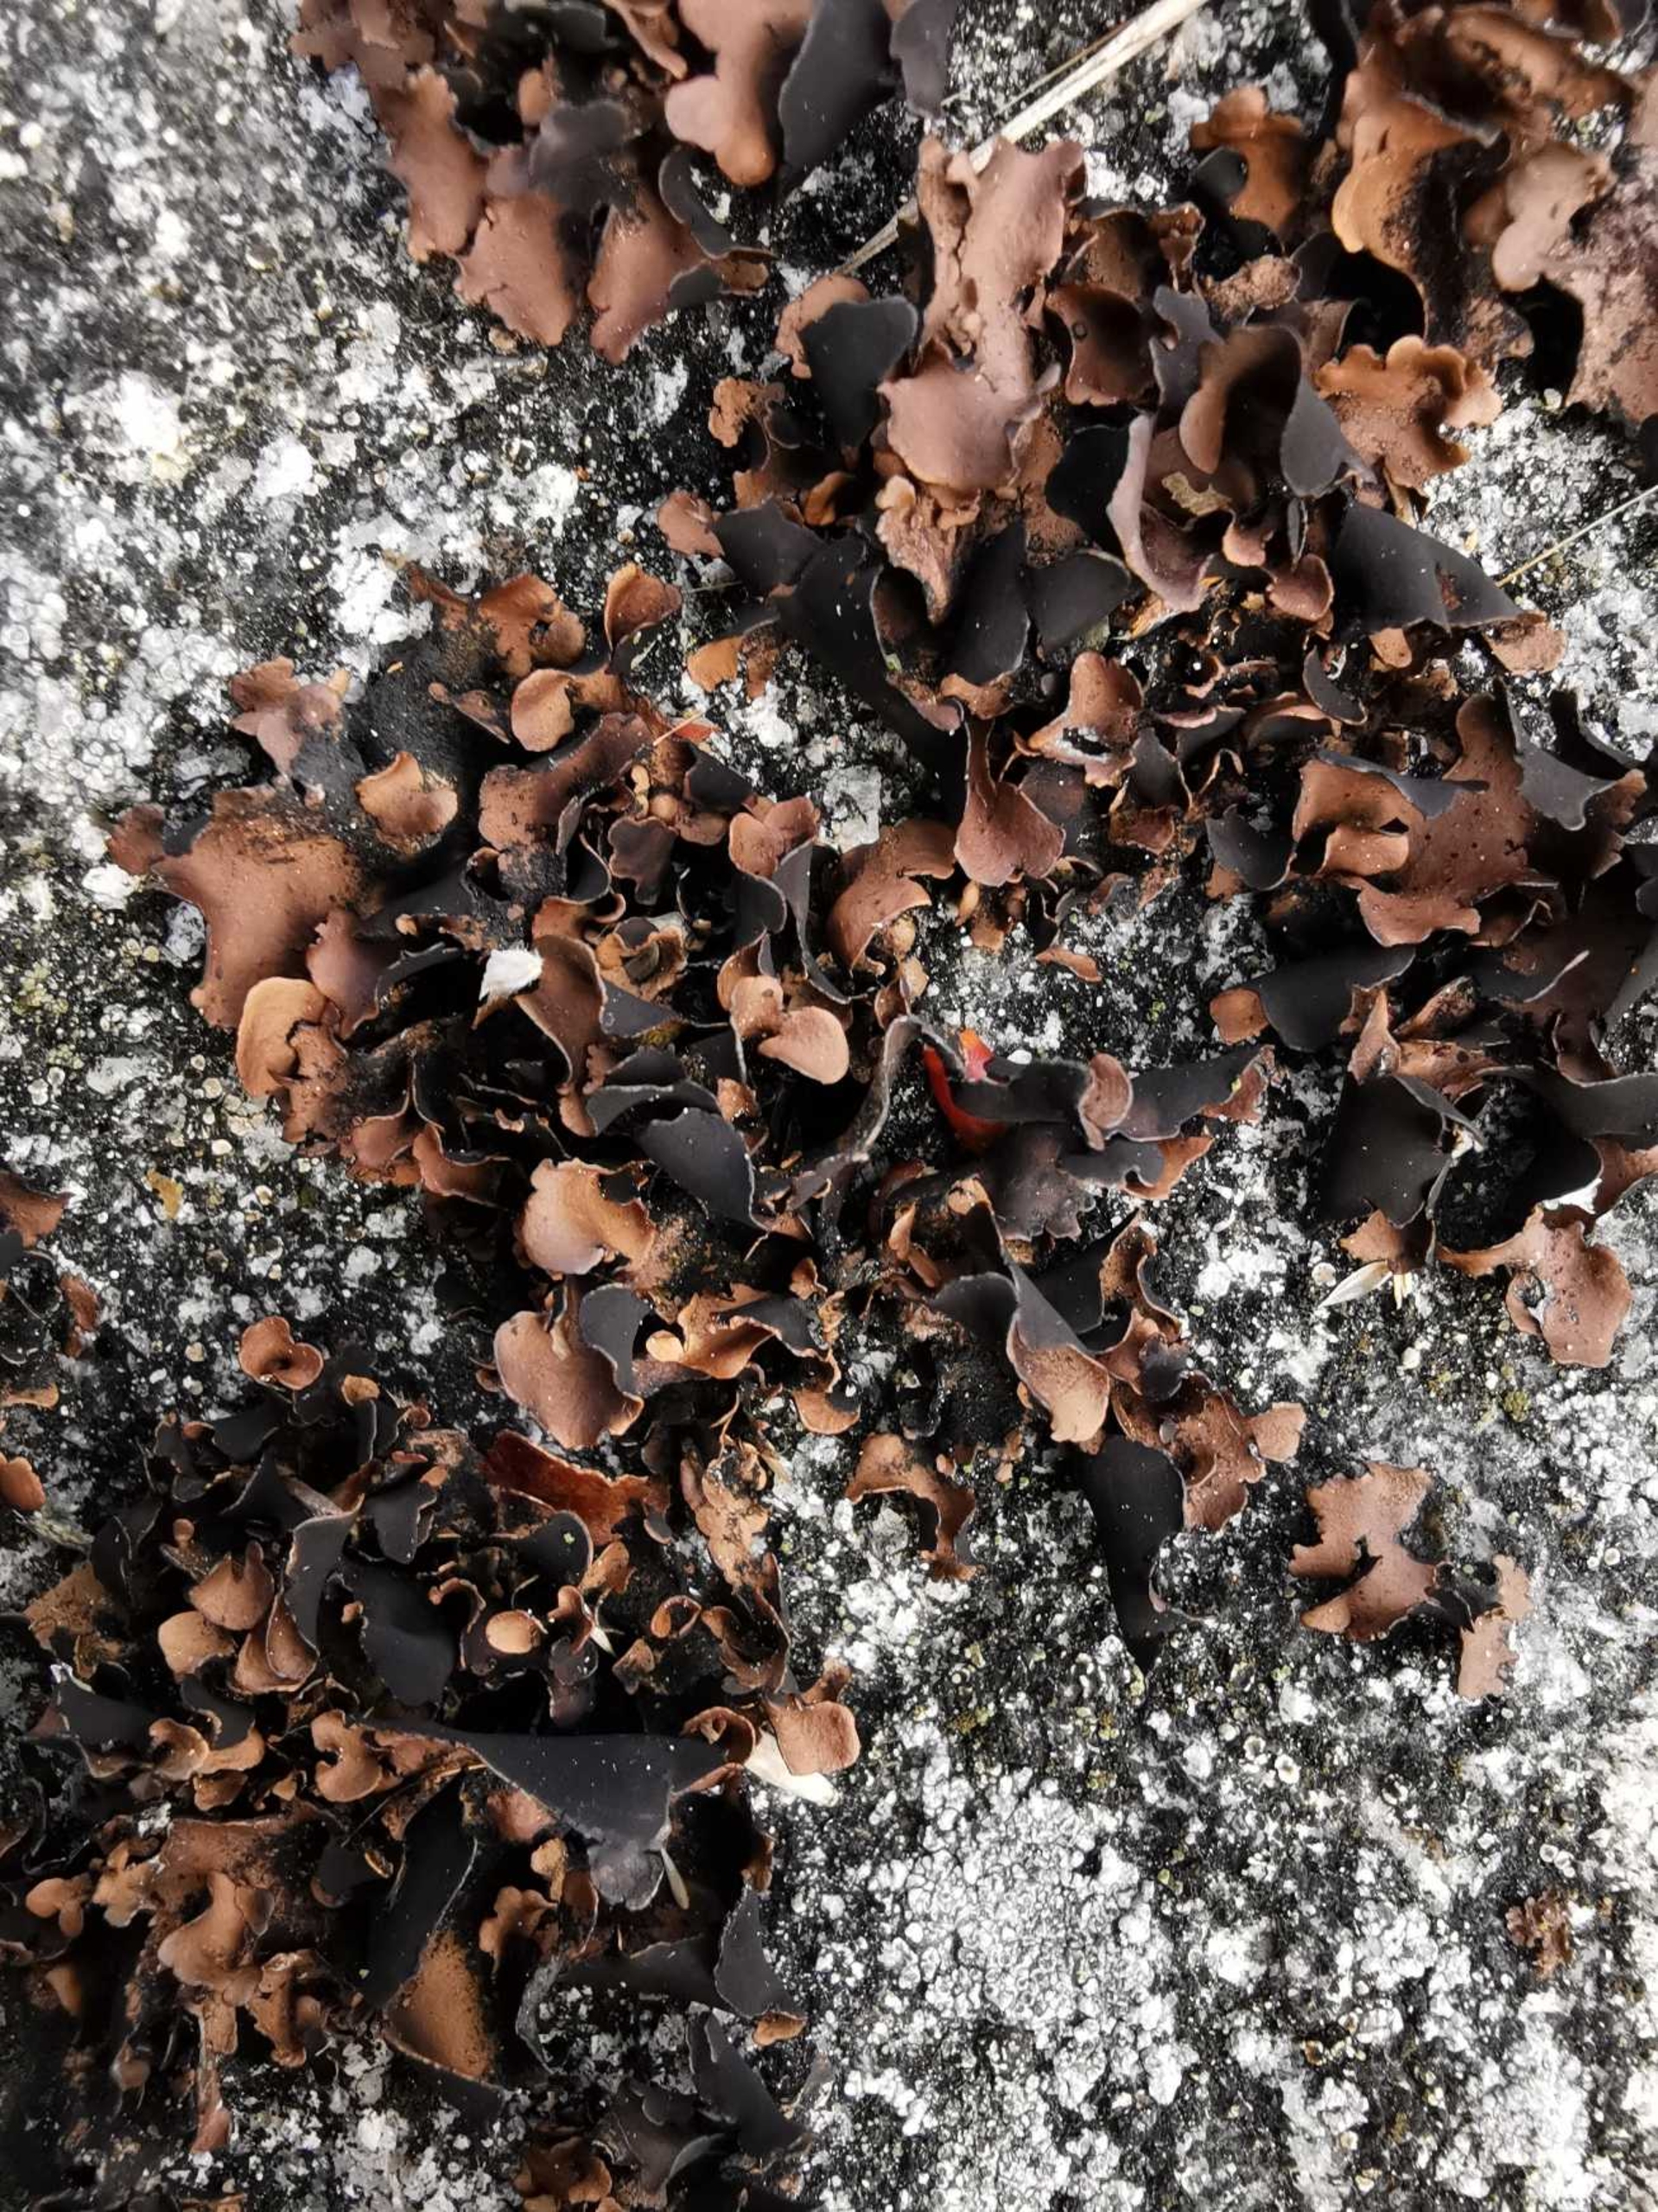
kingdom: Fungi
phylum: Ascomycota
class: Lecanoromycetes
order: Umbilicariales
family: Umbilicariaceae
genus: Umbilicaria
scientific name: Umbilicaria polyphylla
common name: Glat navlelav
